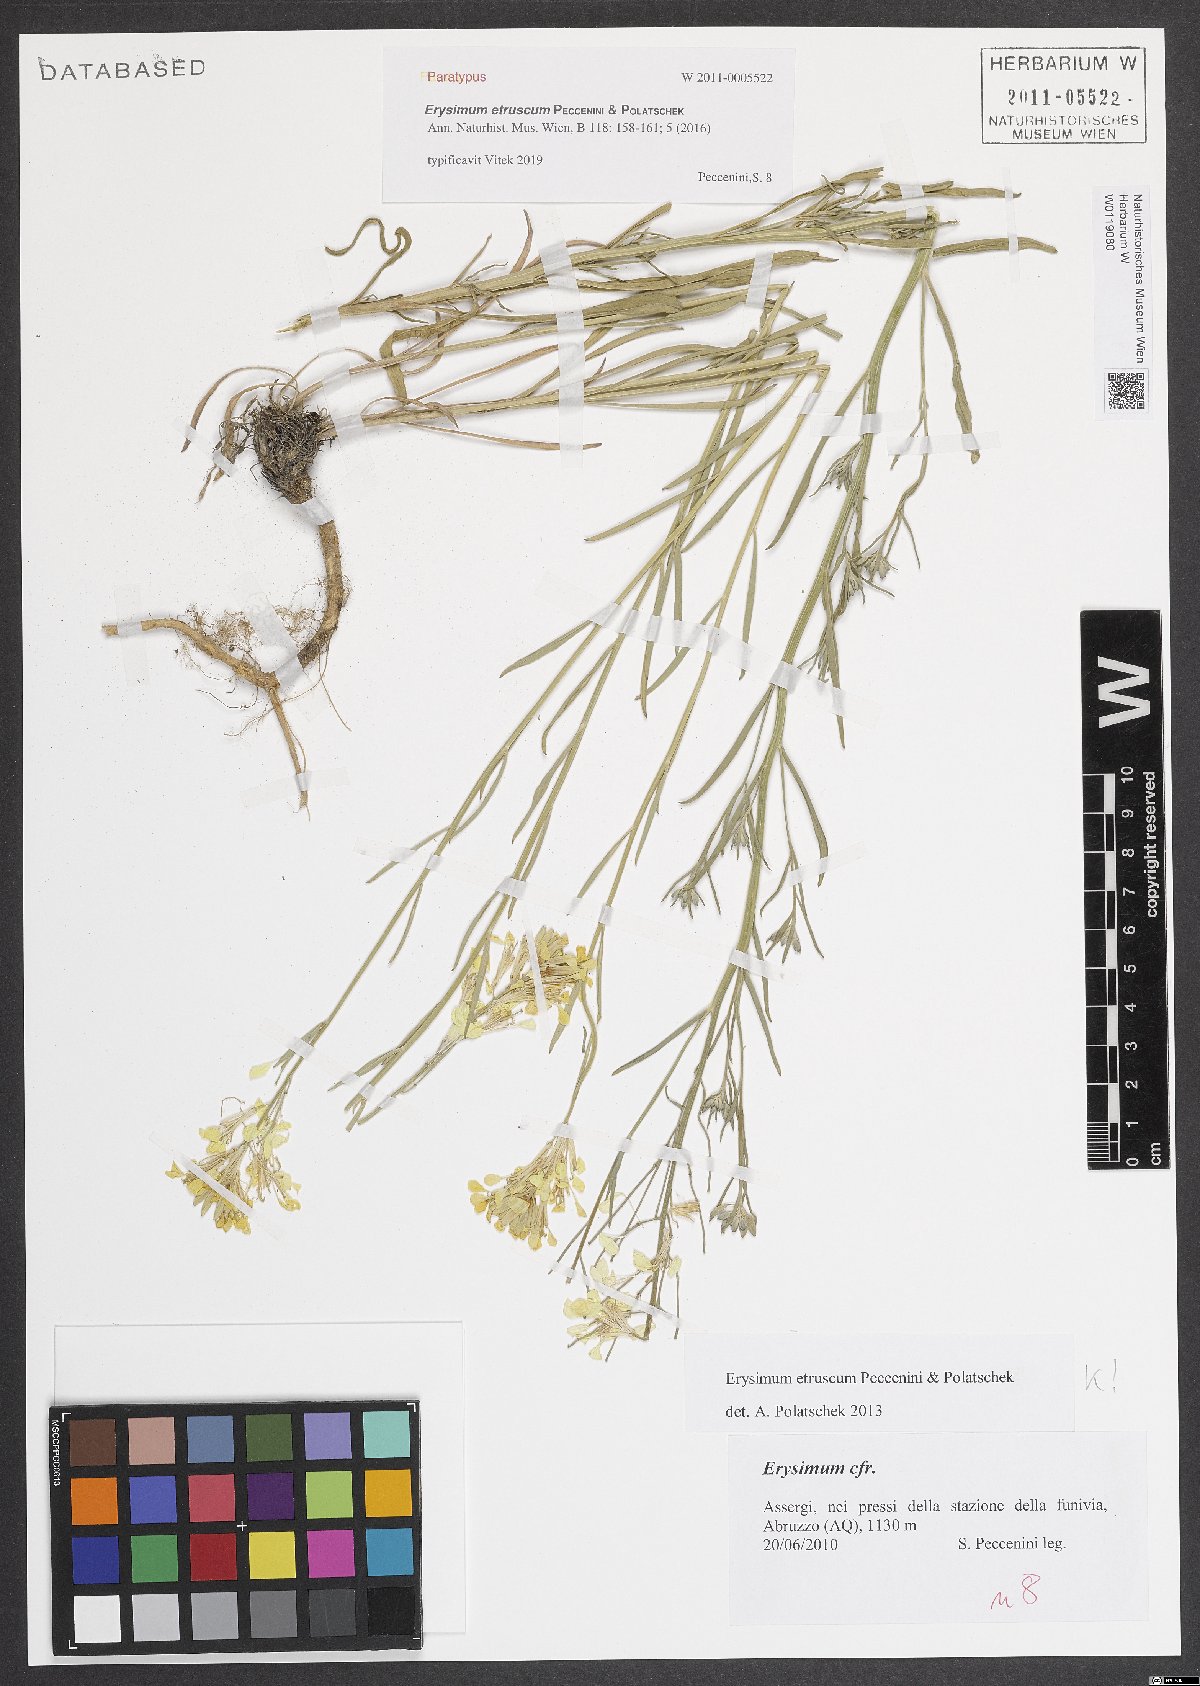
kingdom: Plantae
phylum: Tracheophyta
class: Magnoliopsida
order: Brassicales
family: Brassicaceae
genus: Erysimum
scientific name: Erysimum pseudorhaeticum
